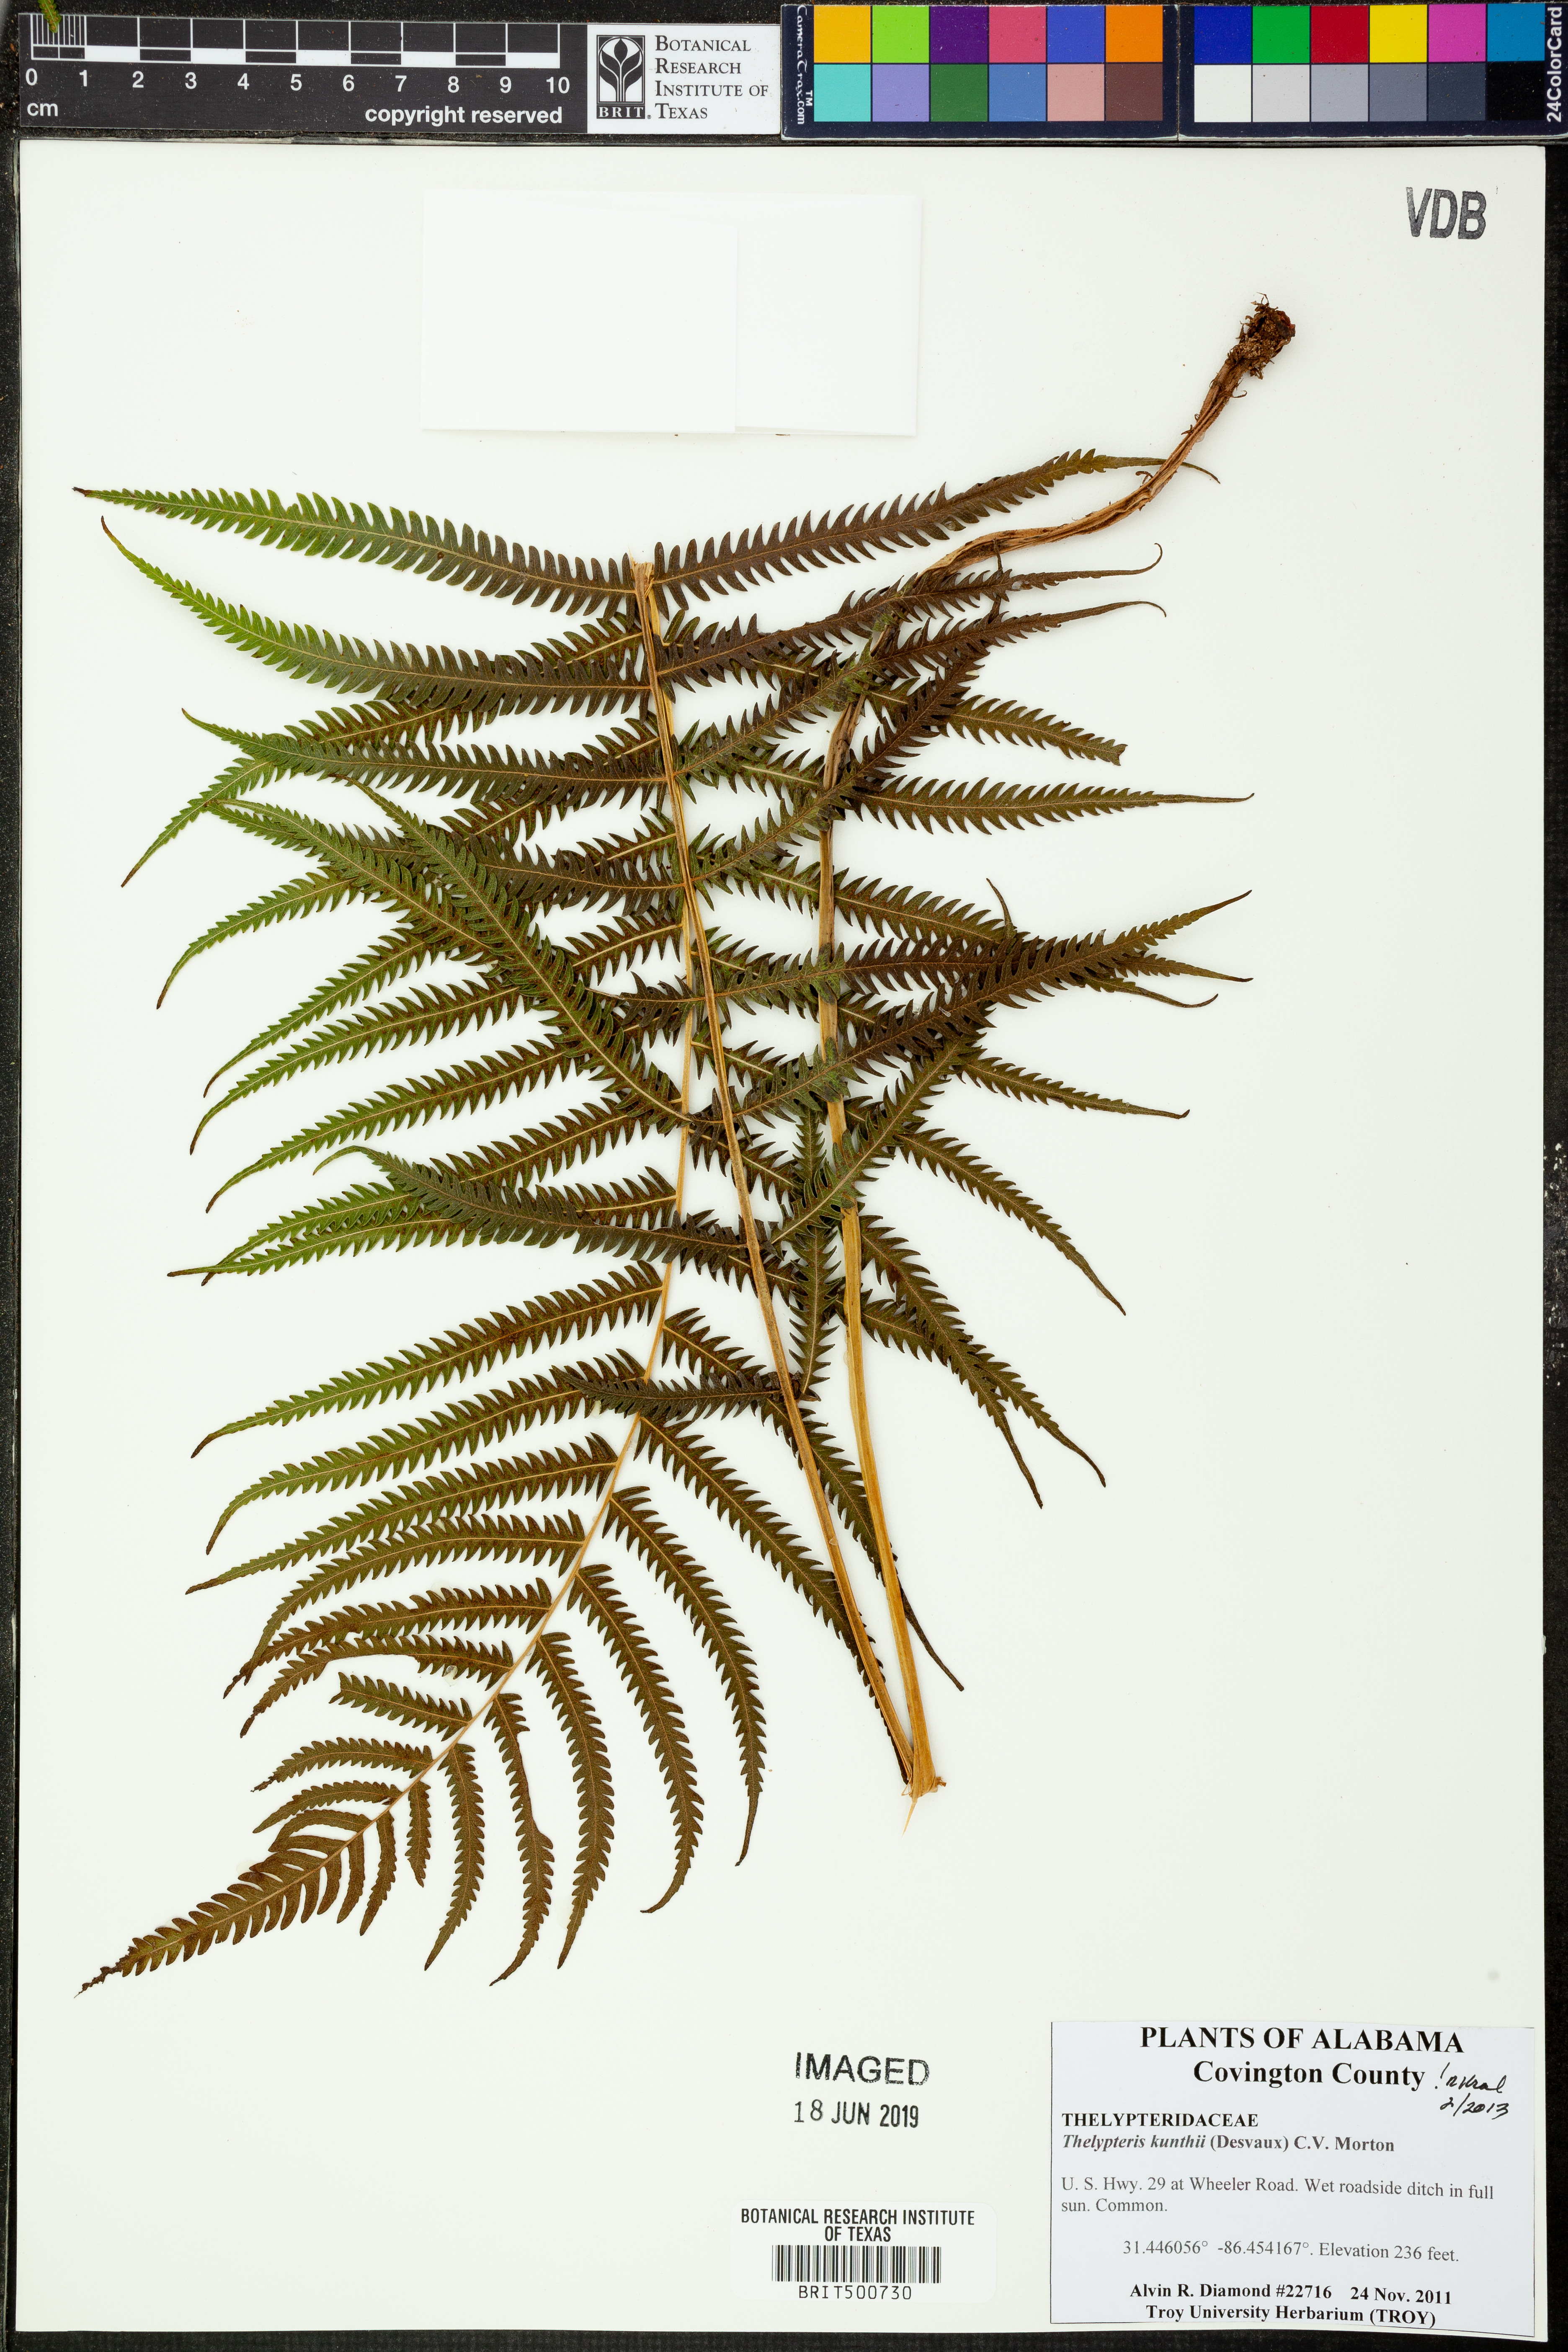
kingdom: Plantae
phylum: Tracheophyta
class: Polypodiopsida
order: Polypodiales
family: Thelypteridaceae
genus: Pelazoneuron
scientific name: Pelazoneuron kunthii
